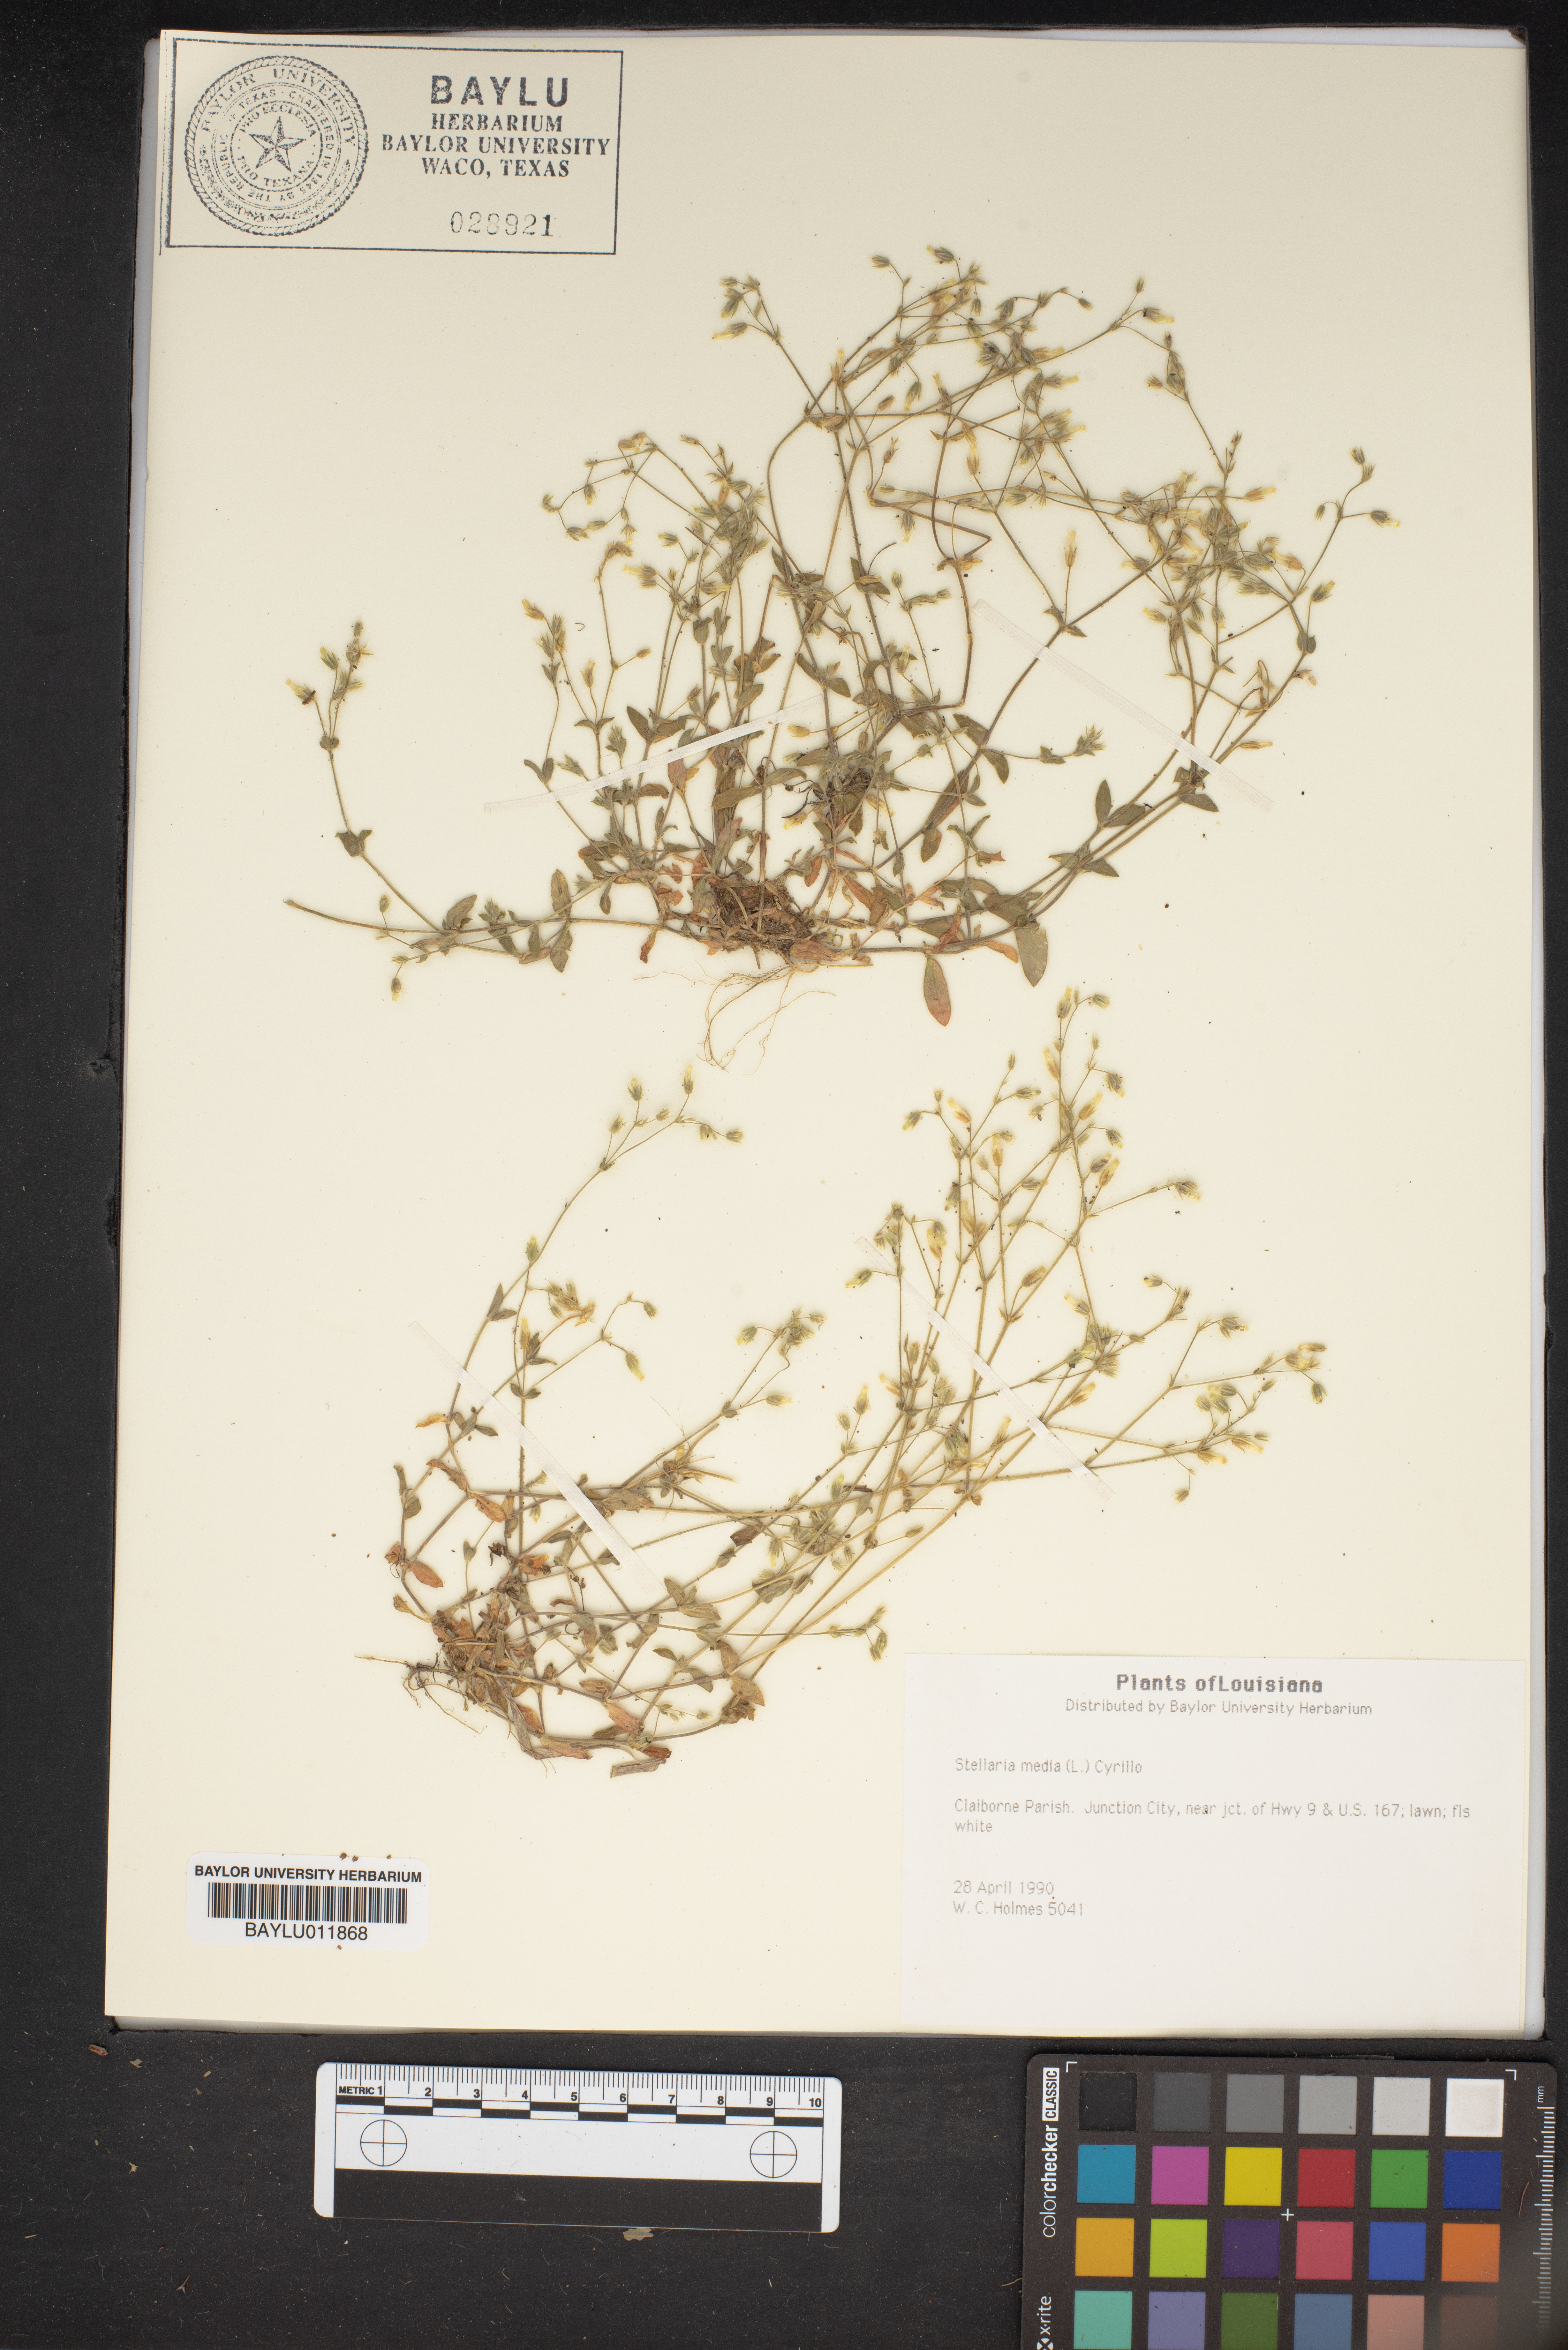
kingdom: Plantae
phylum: Tracheophyta
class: Magnoliopsida
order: Caryophyllales
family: Caryophyllaceae
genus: Stellaria
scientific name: Stellaria media
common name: Common chickweed
